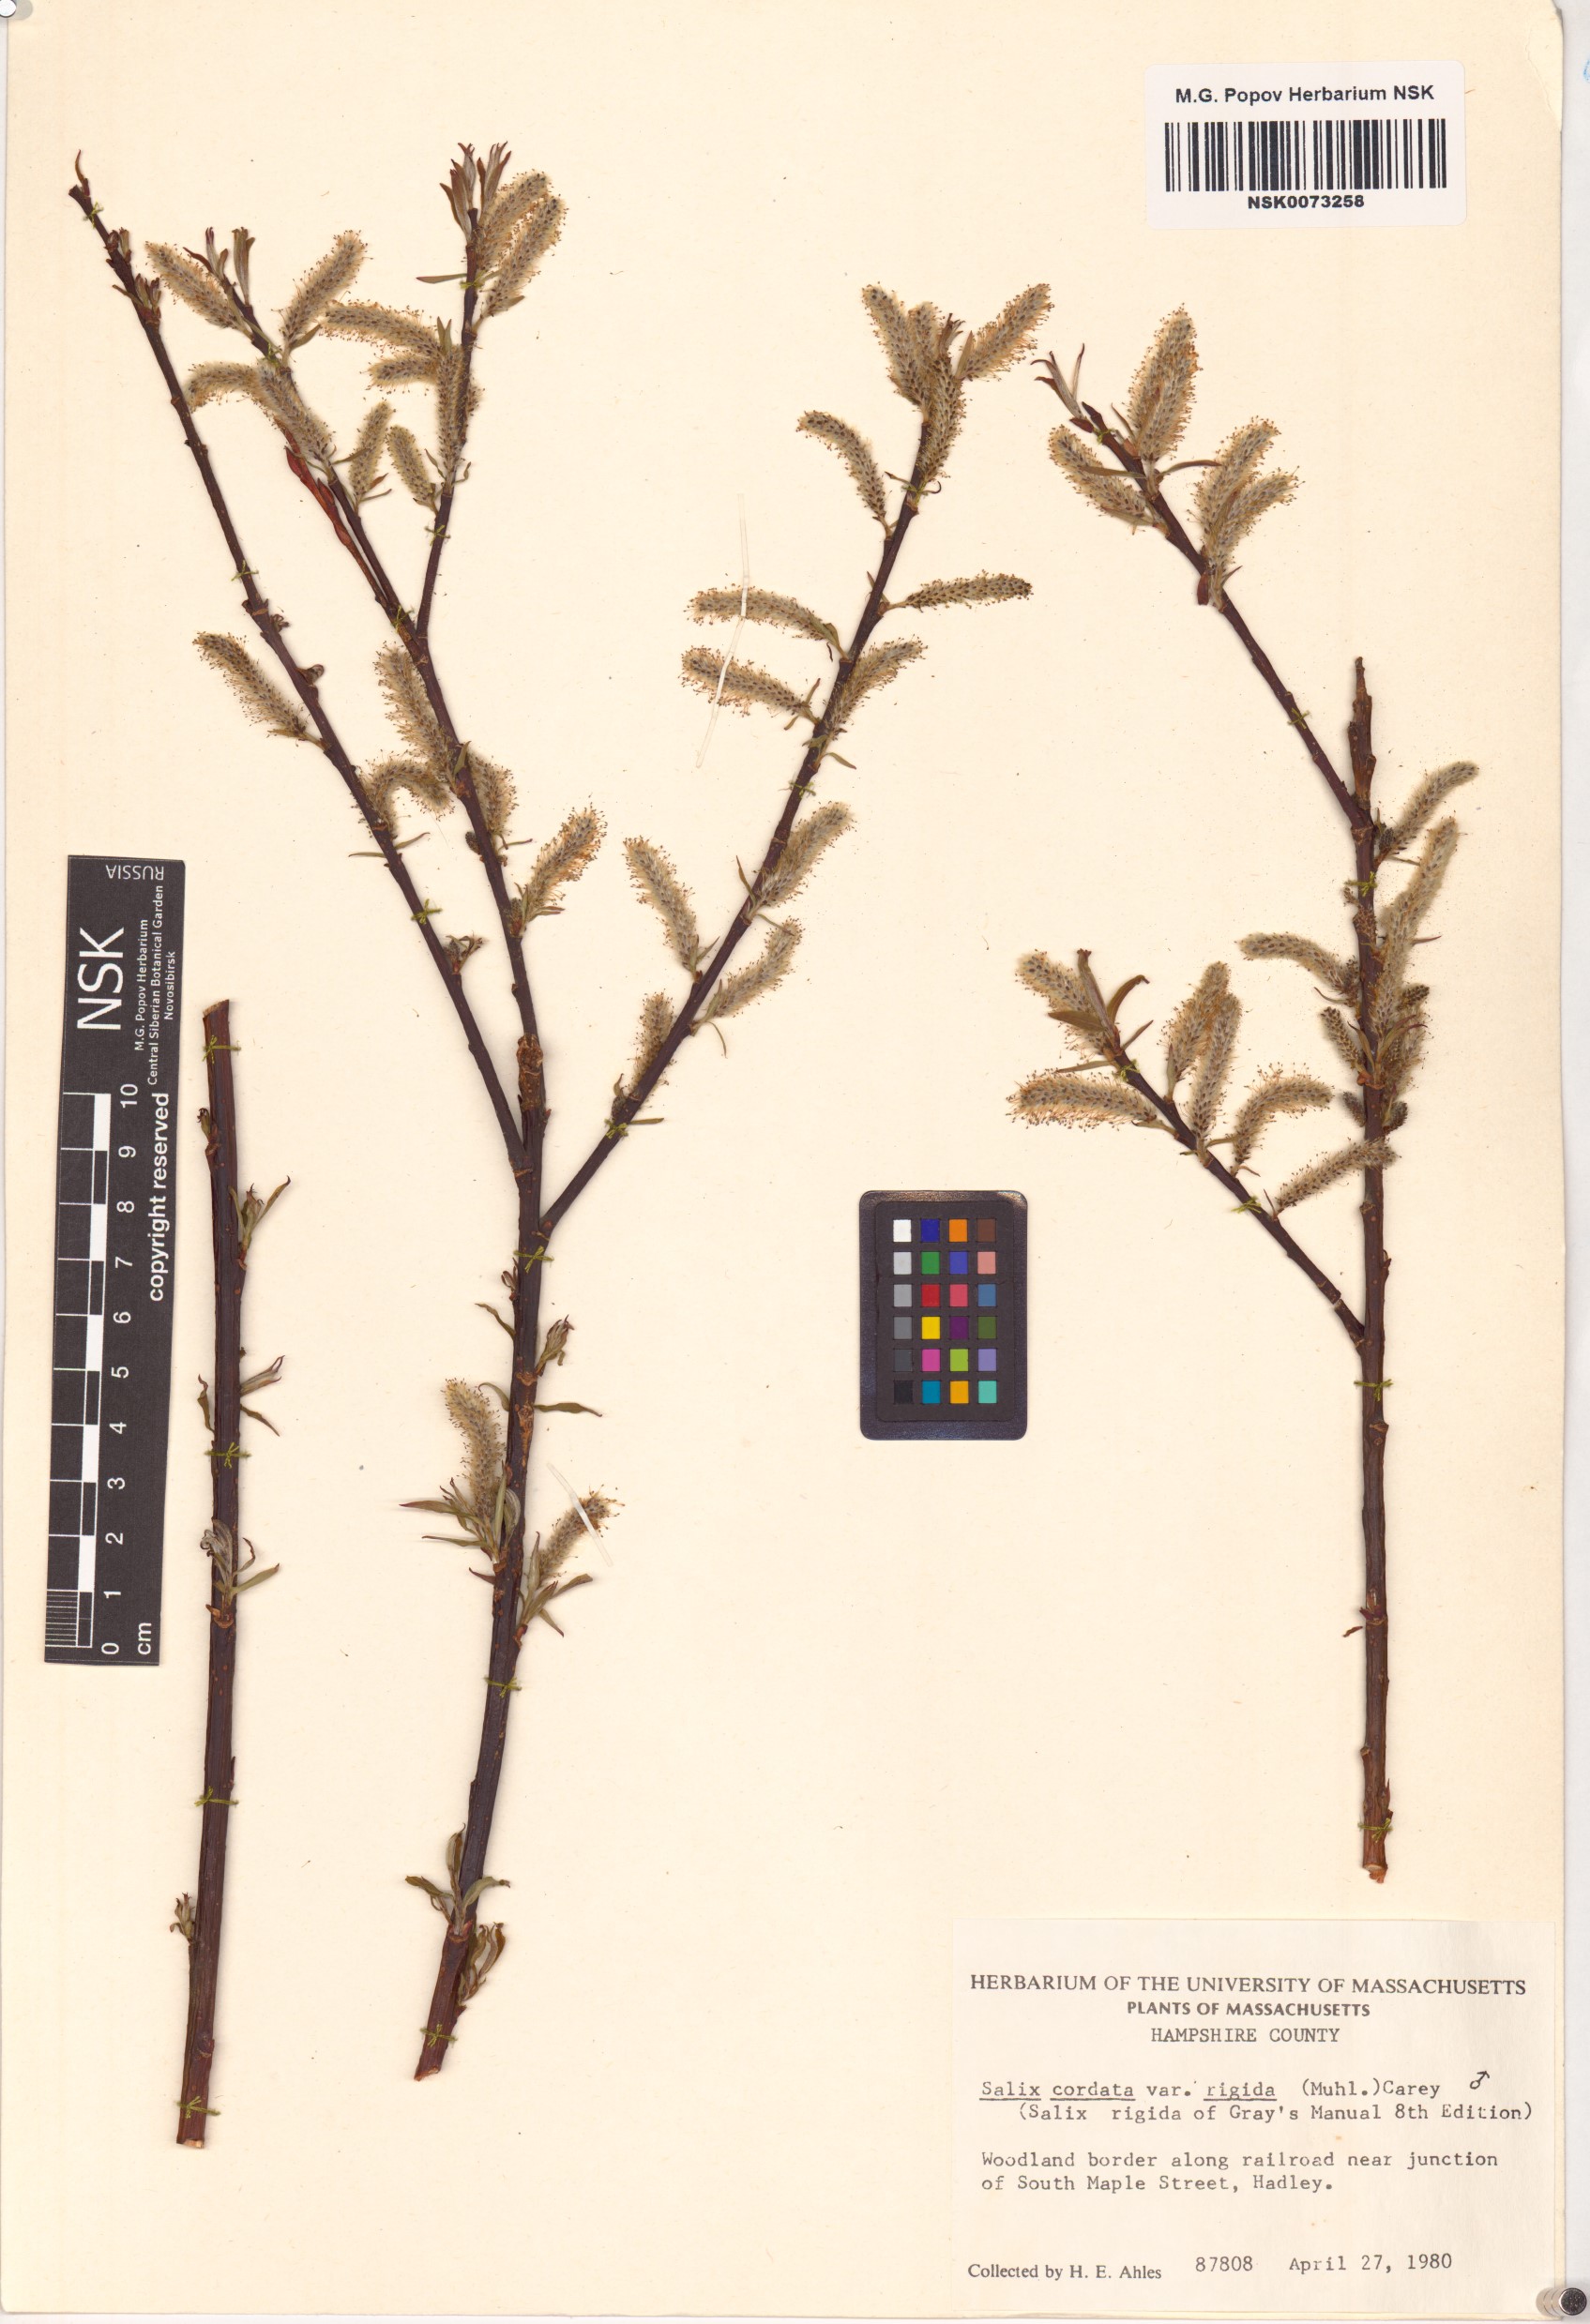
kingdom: Plantae
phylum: Tracheophyta
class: Magnoliopsida
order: Malpighiales
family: Salicaceae
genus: Salix
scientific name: Salix eriocephala
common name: Heart-leaved willow
